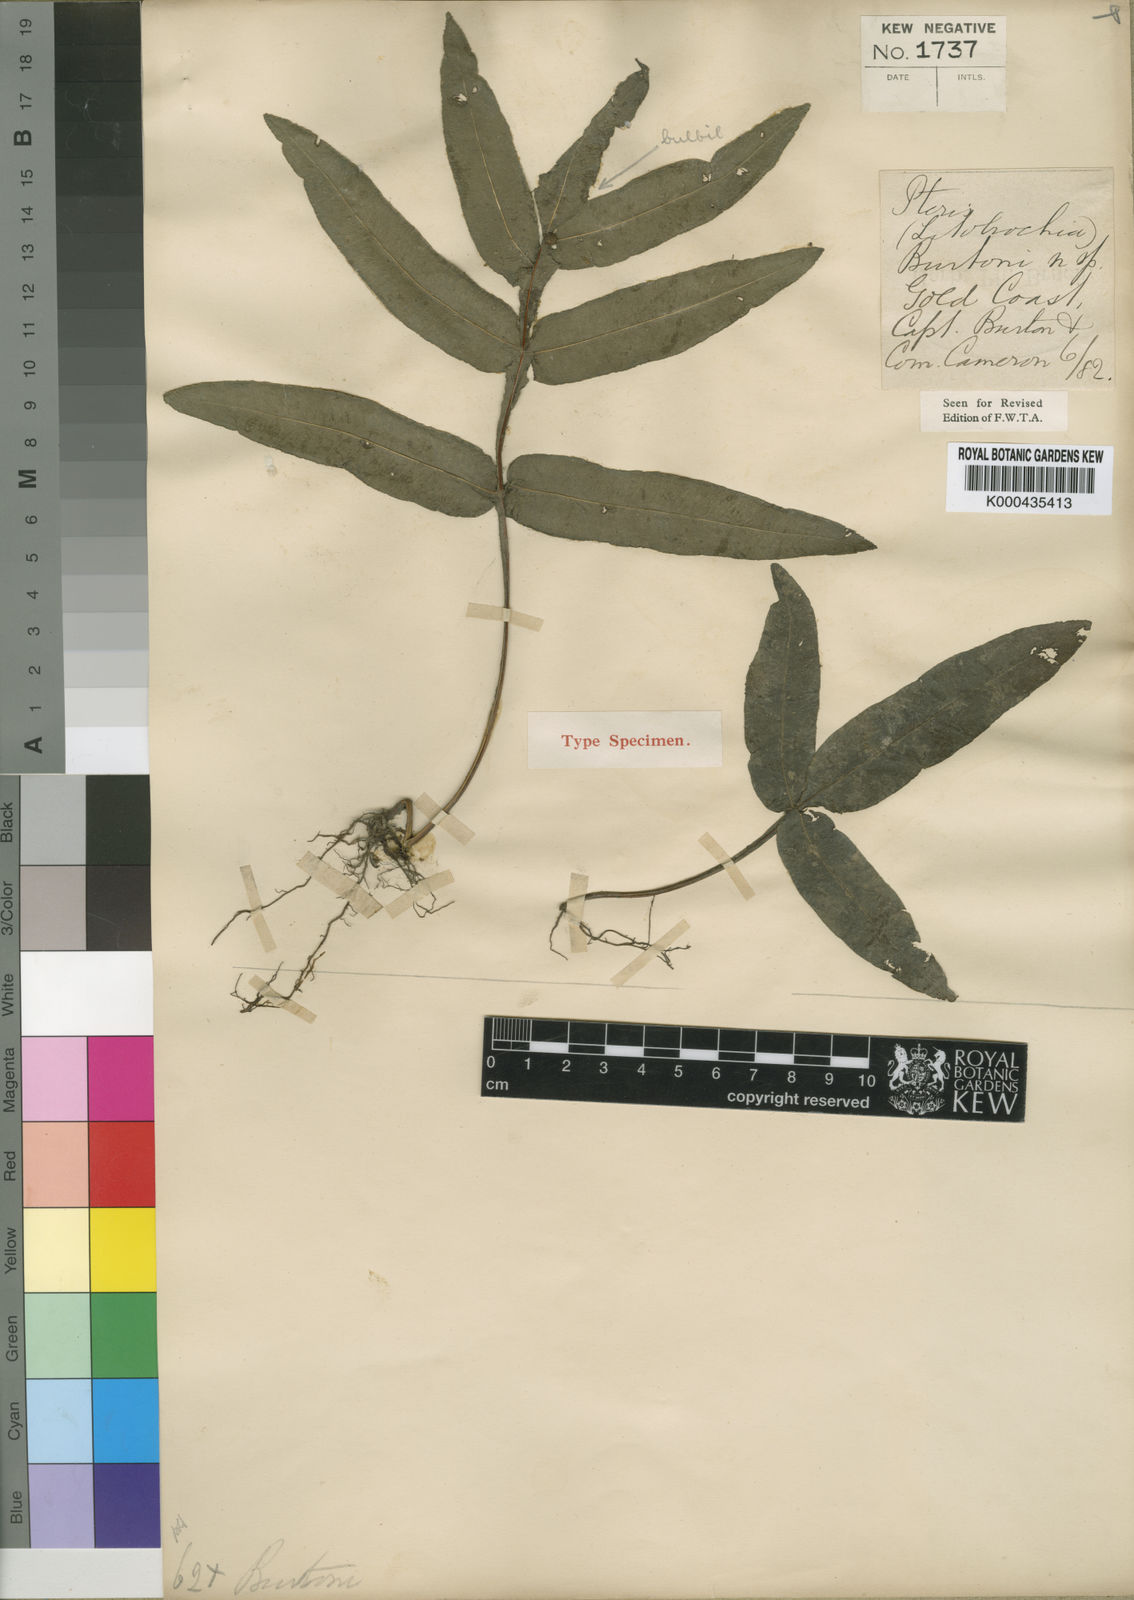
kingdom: Plantae
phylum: Tracheophyta
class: Polypodiopsida
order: Polypodiales
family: Pteridaceae
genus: Pteris
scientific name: Pteris burtonii
